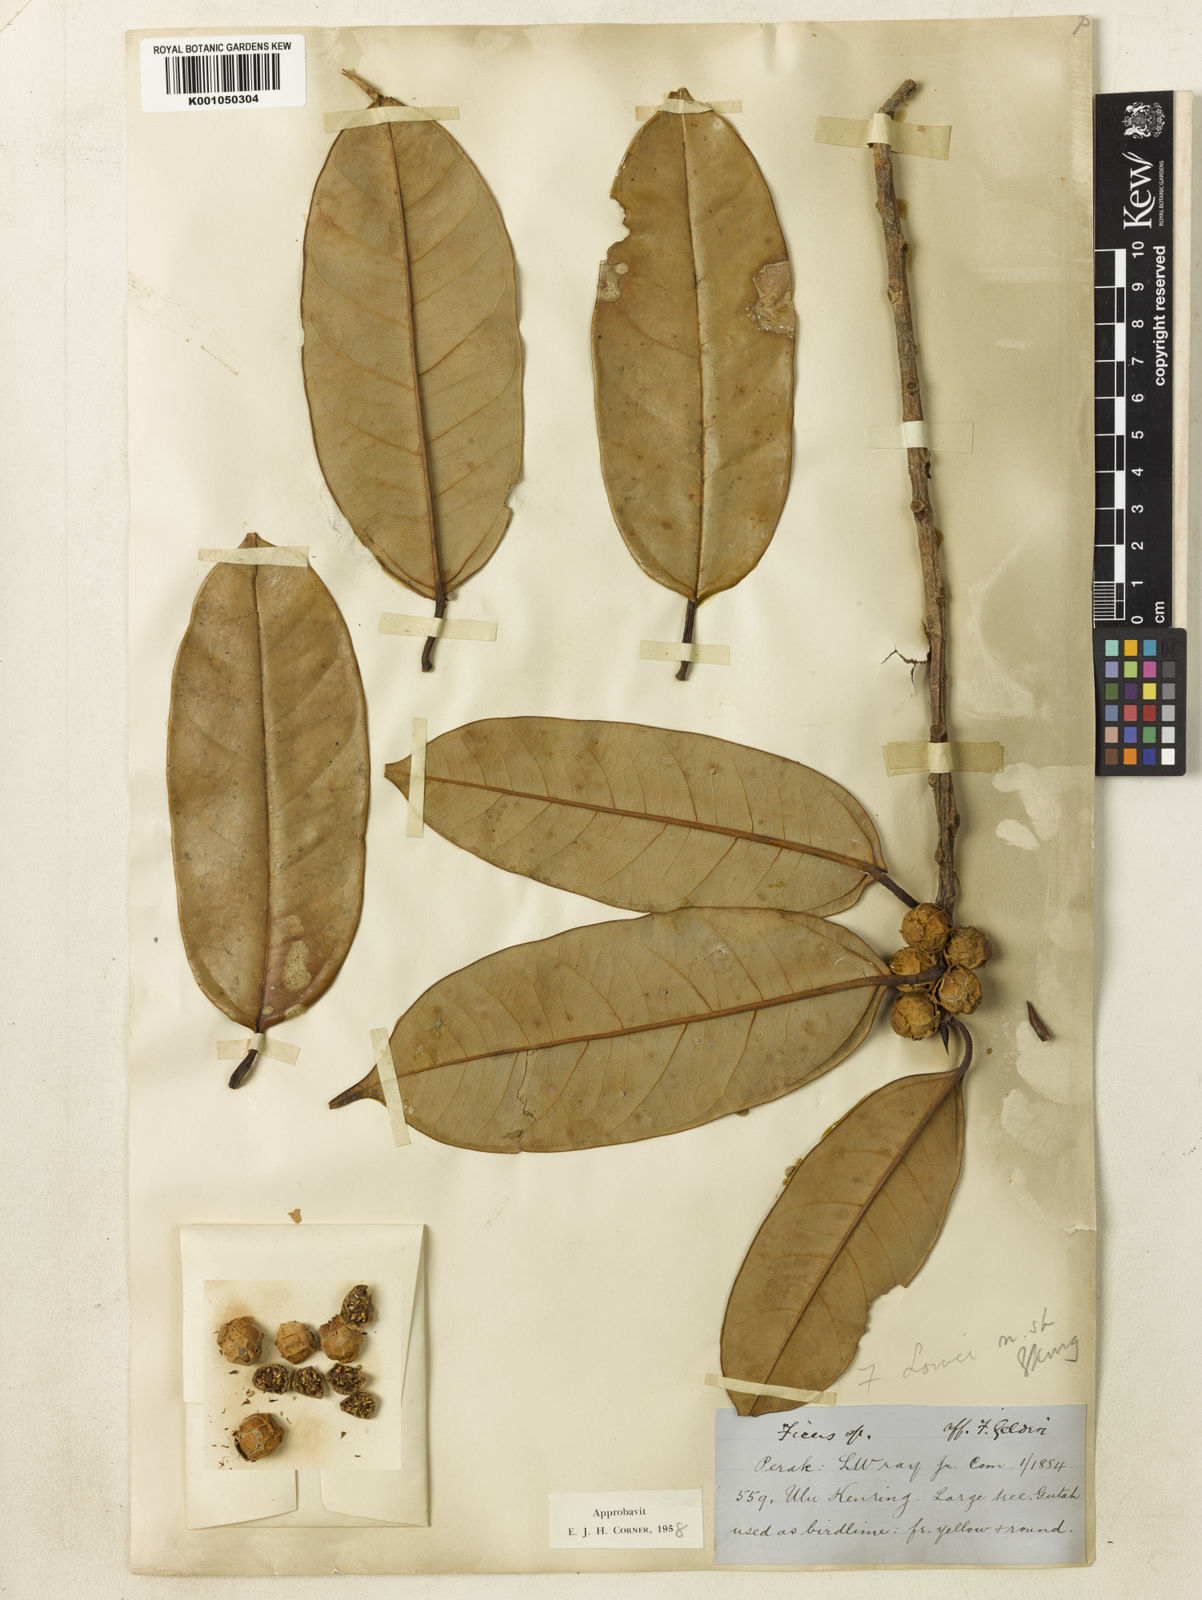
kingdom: Plantae
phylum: Tracheophyta
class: Magnoliopsida
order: Rosales
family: Moraceae
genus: Ficus
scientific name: Ficus lowii
